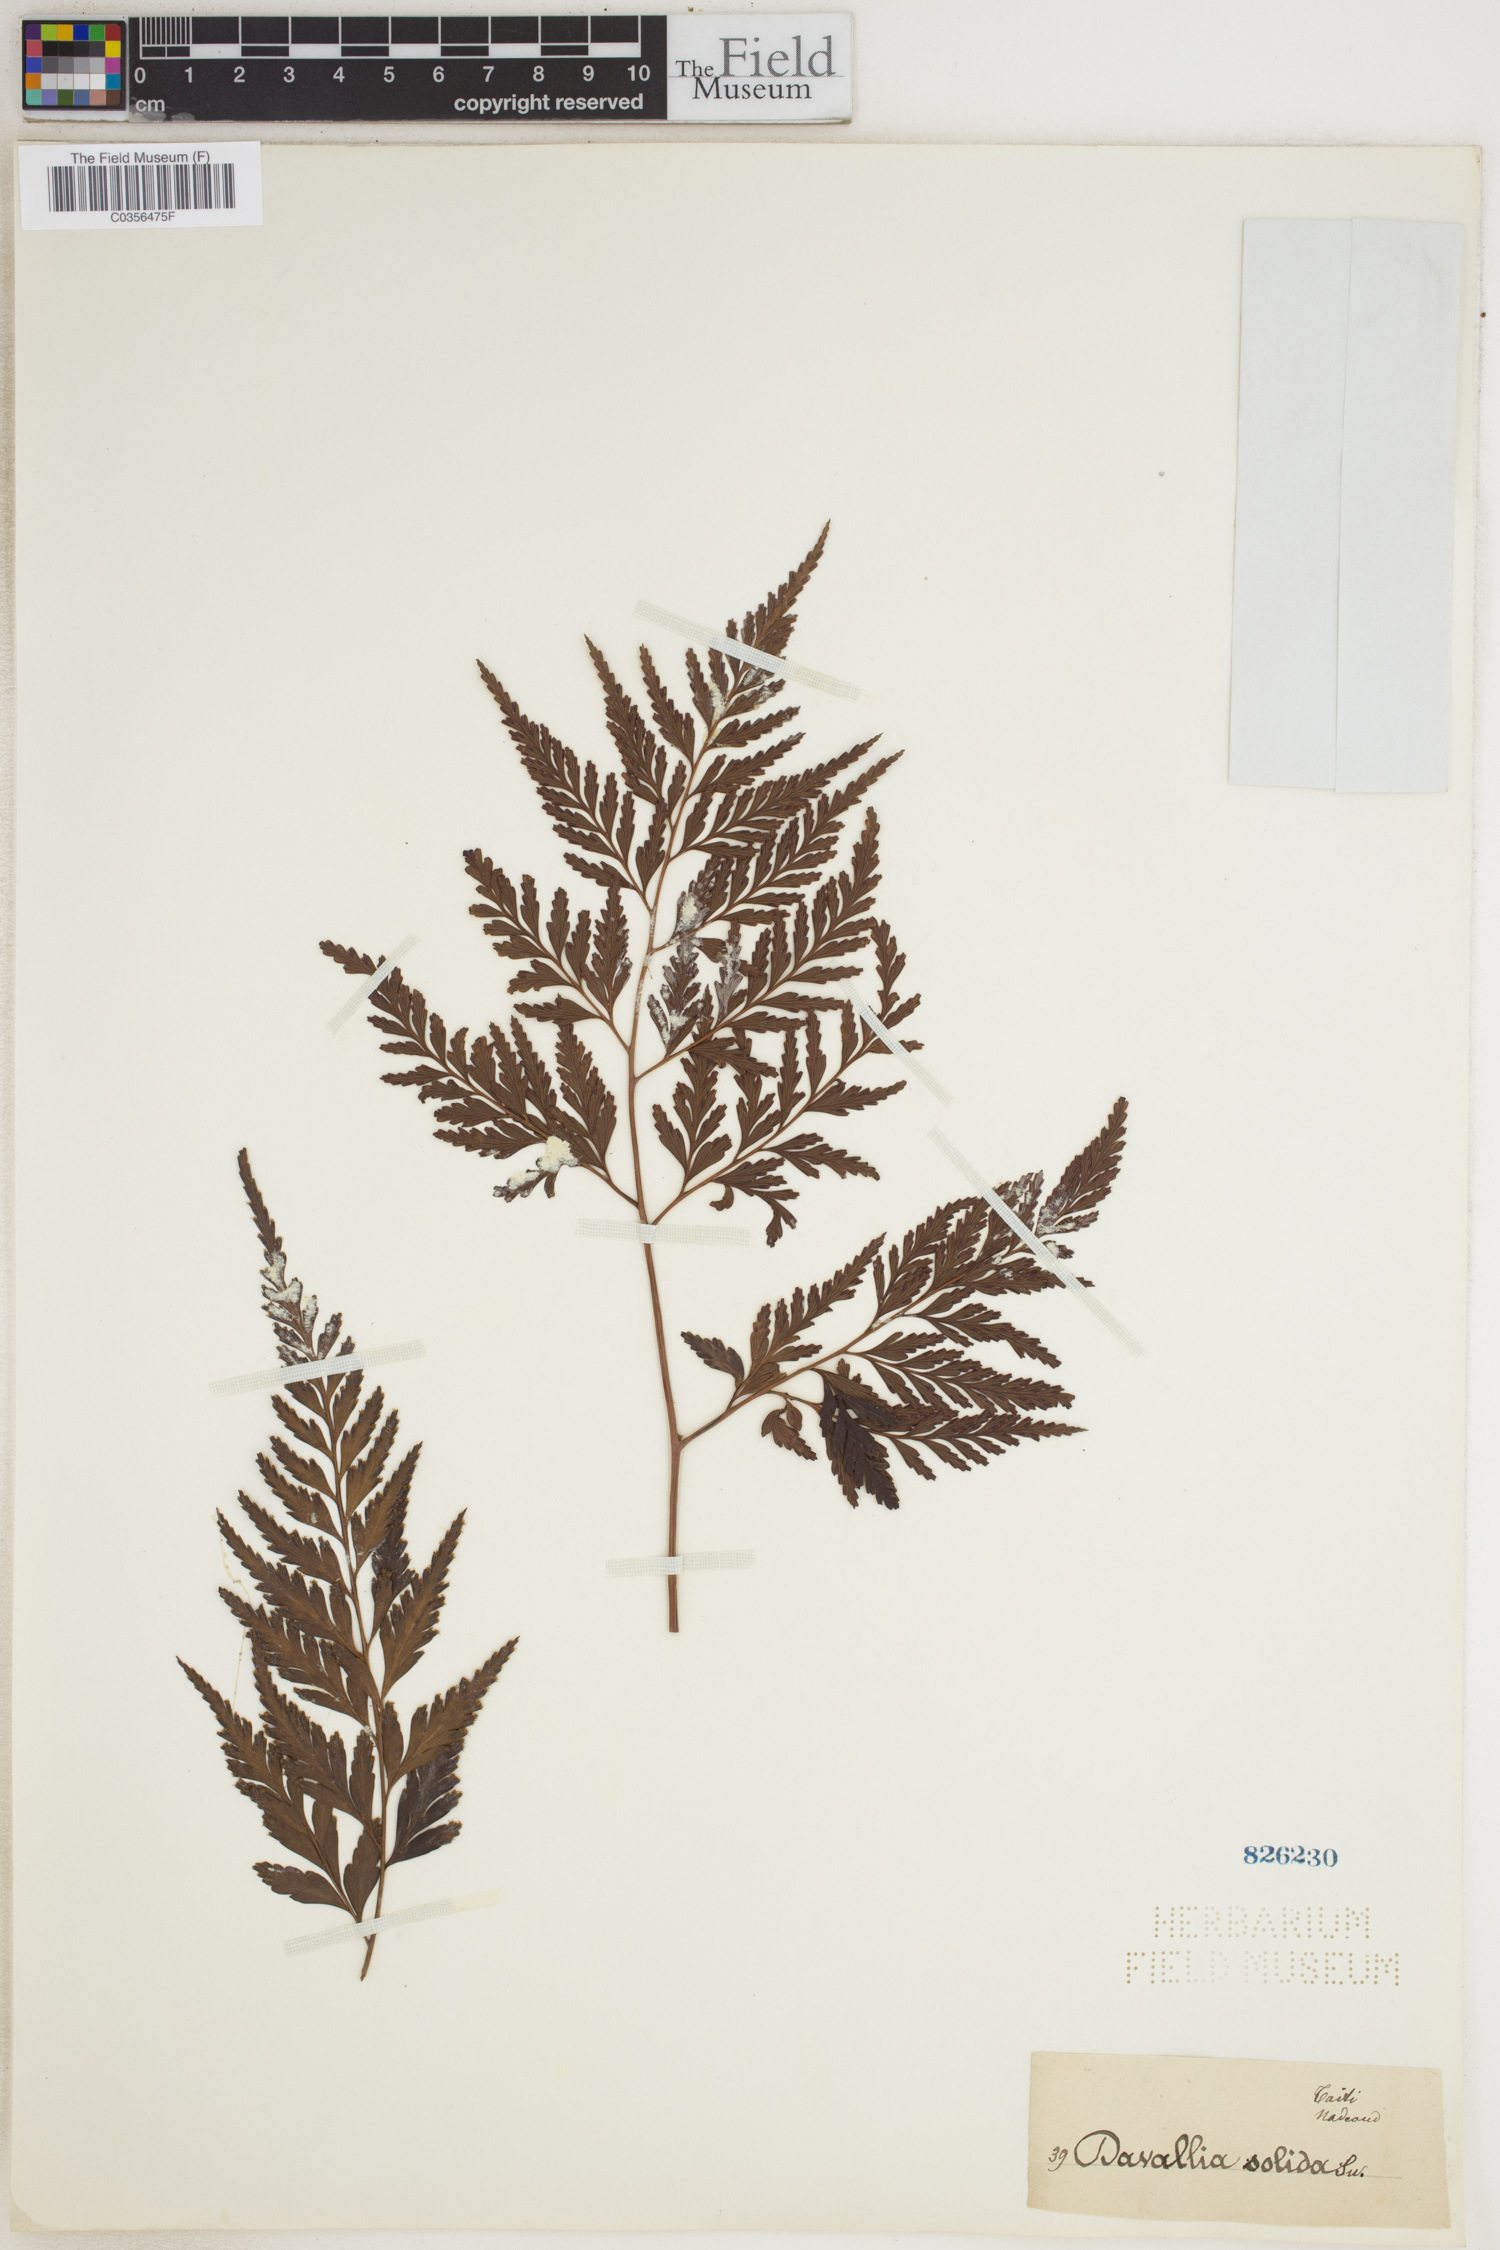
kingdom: Plantae
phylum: Tracheophyta
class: Polypodiopsida
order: Polypodiales
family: Davalliaceae
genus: Davallia
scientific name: Davallia solida
